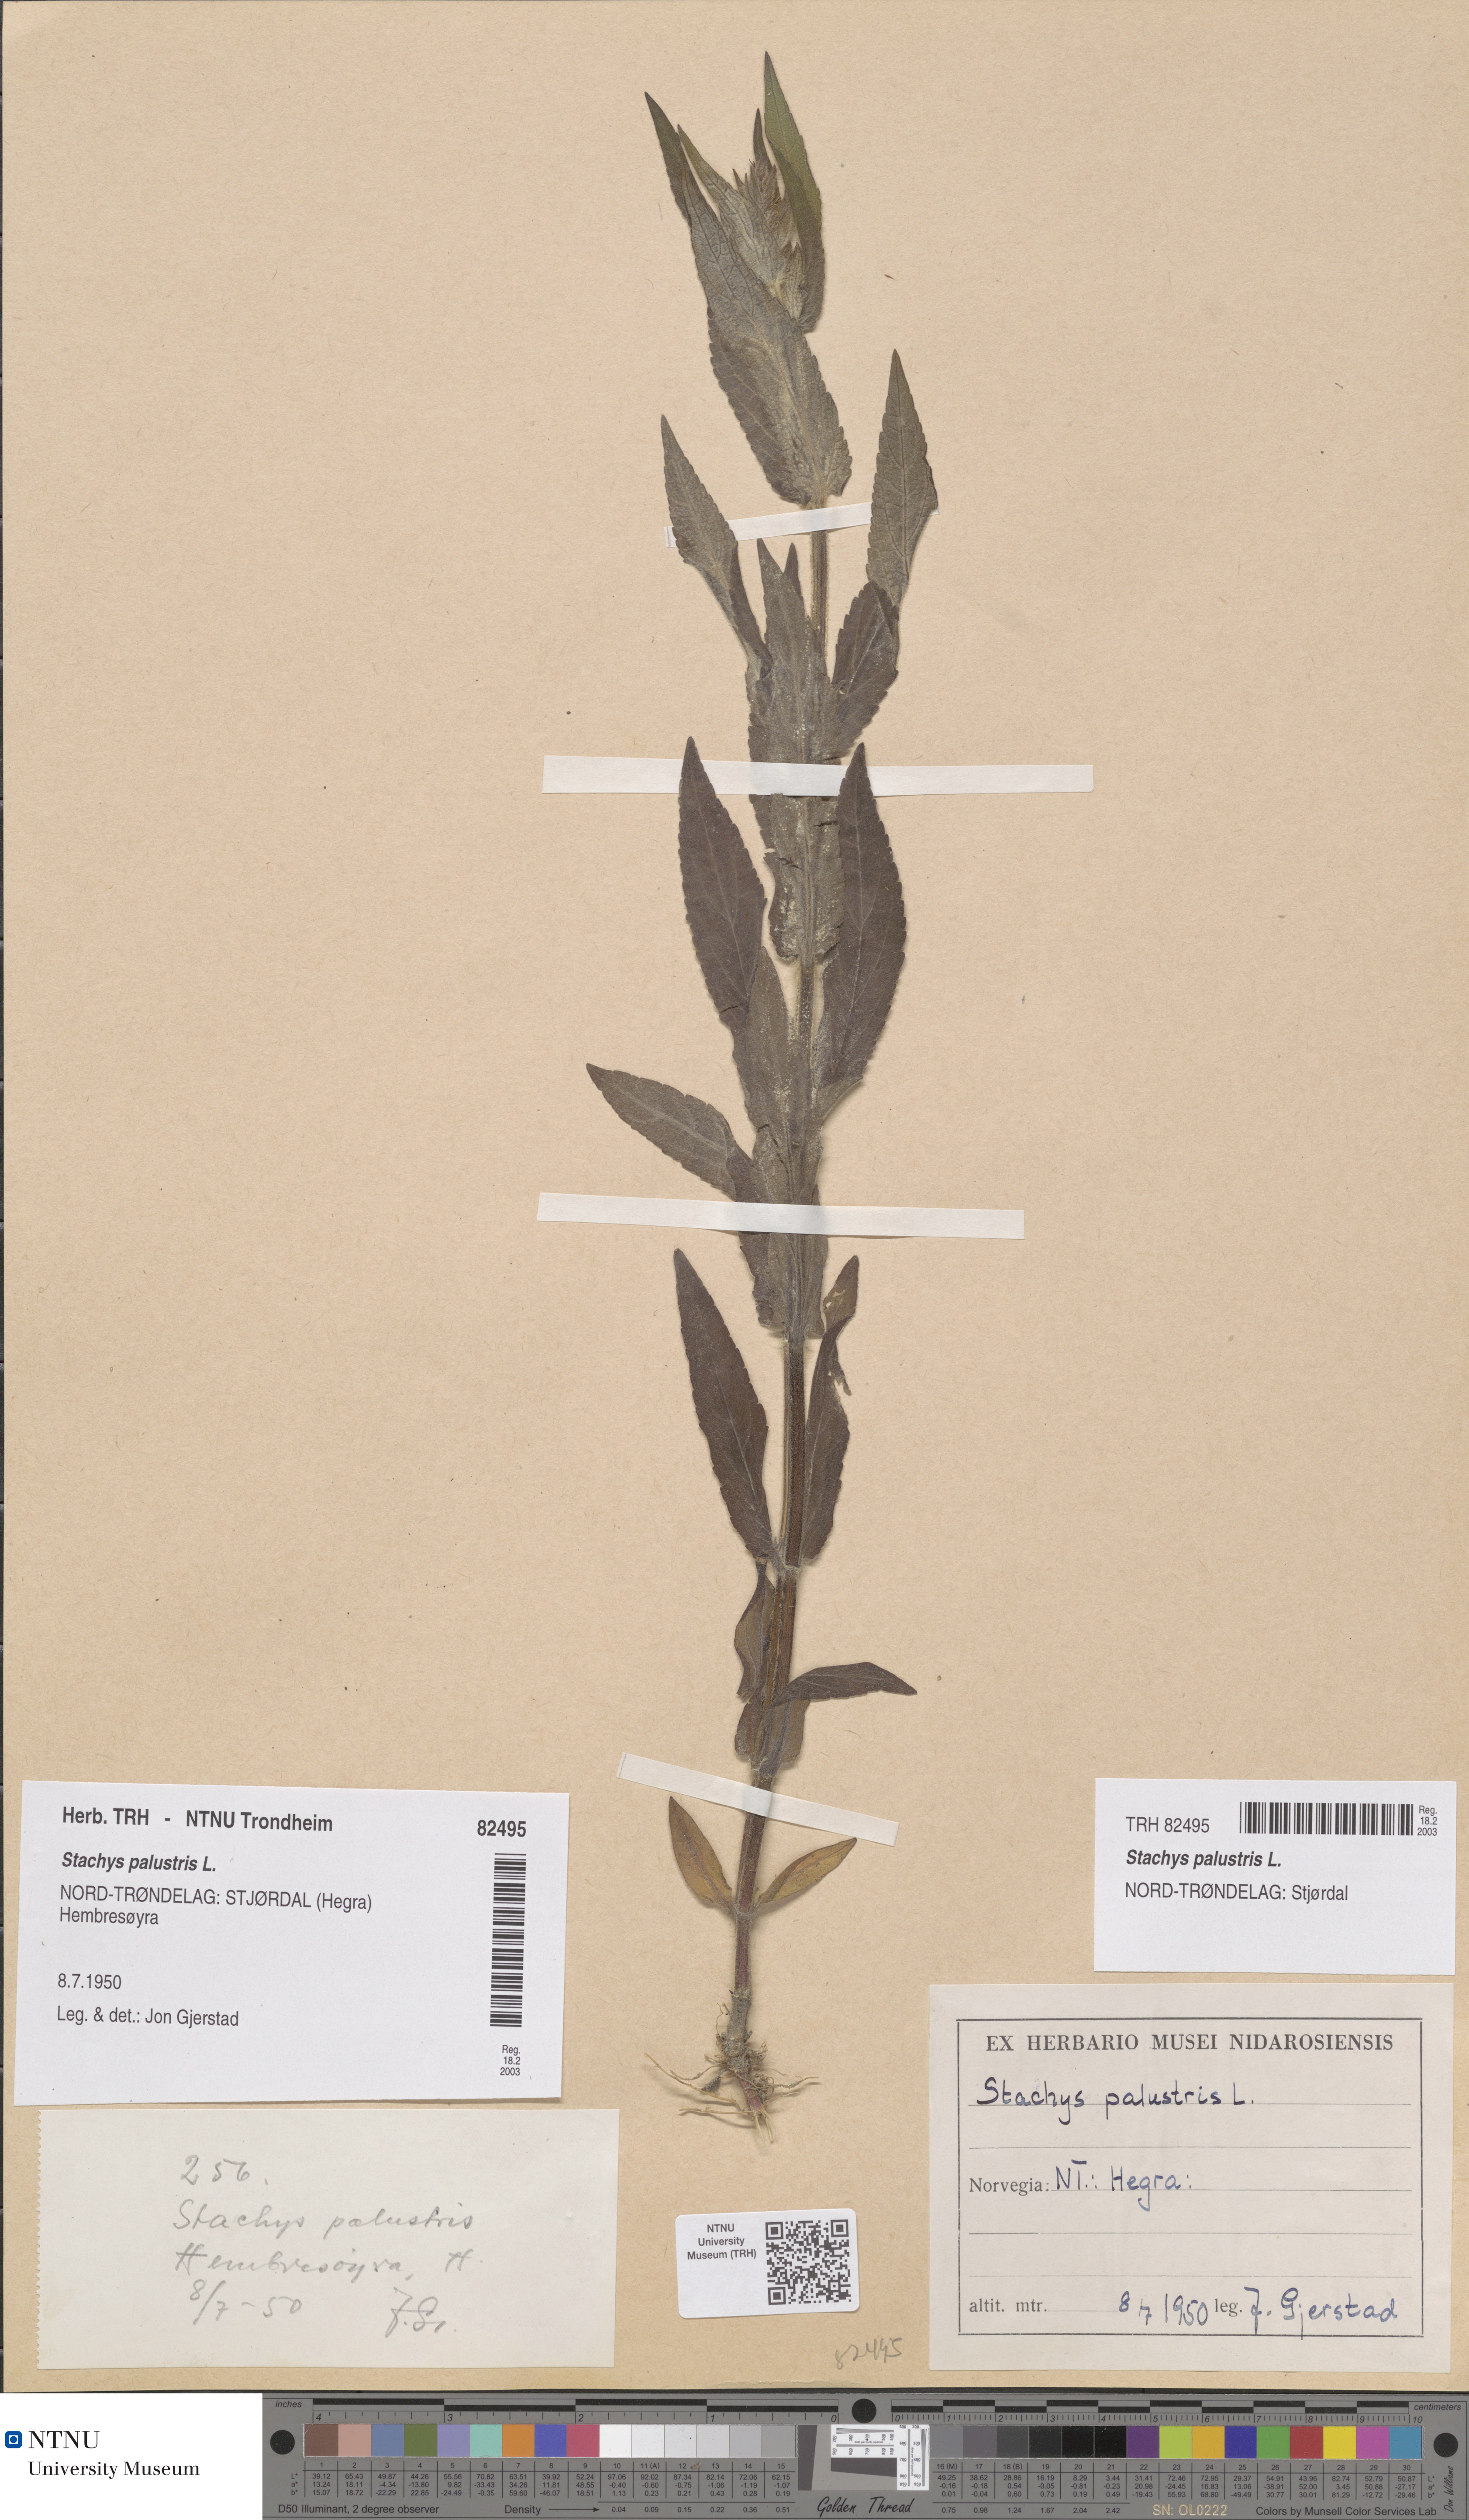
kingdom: Plantae
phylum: Tracheophyta
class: Magnoliopsida
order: Lamiales
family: Lamiaceae
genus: Stachys
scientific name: Stachys palustris
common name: Marsh woundwort
